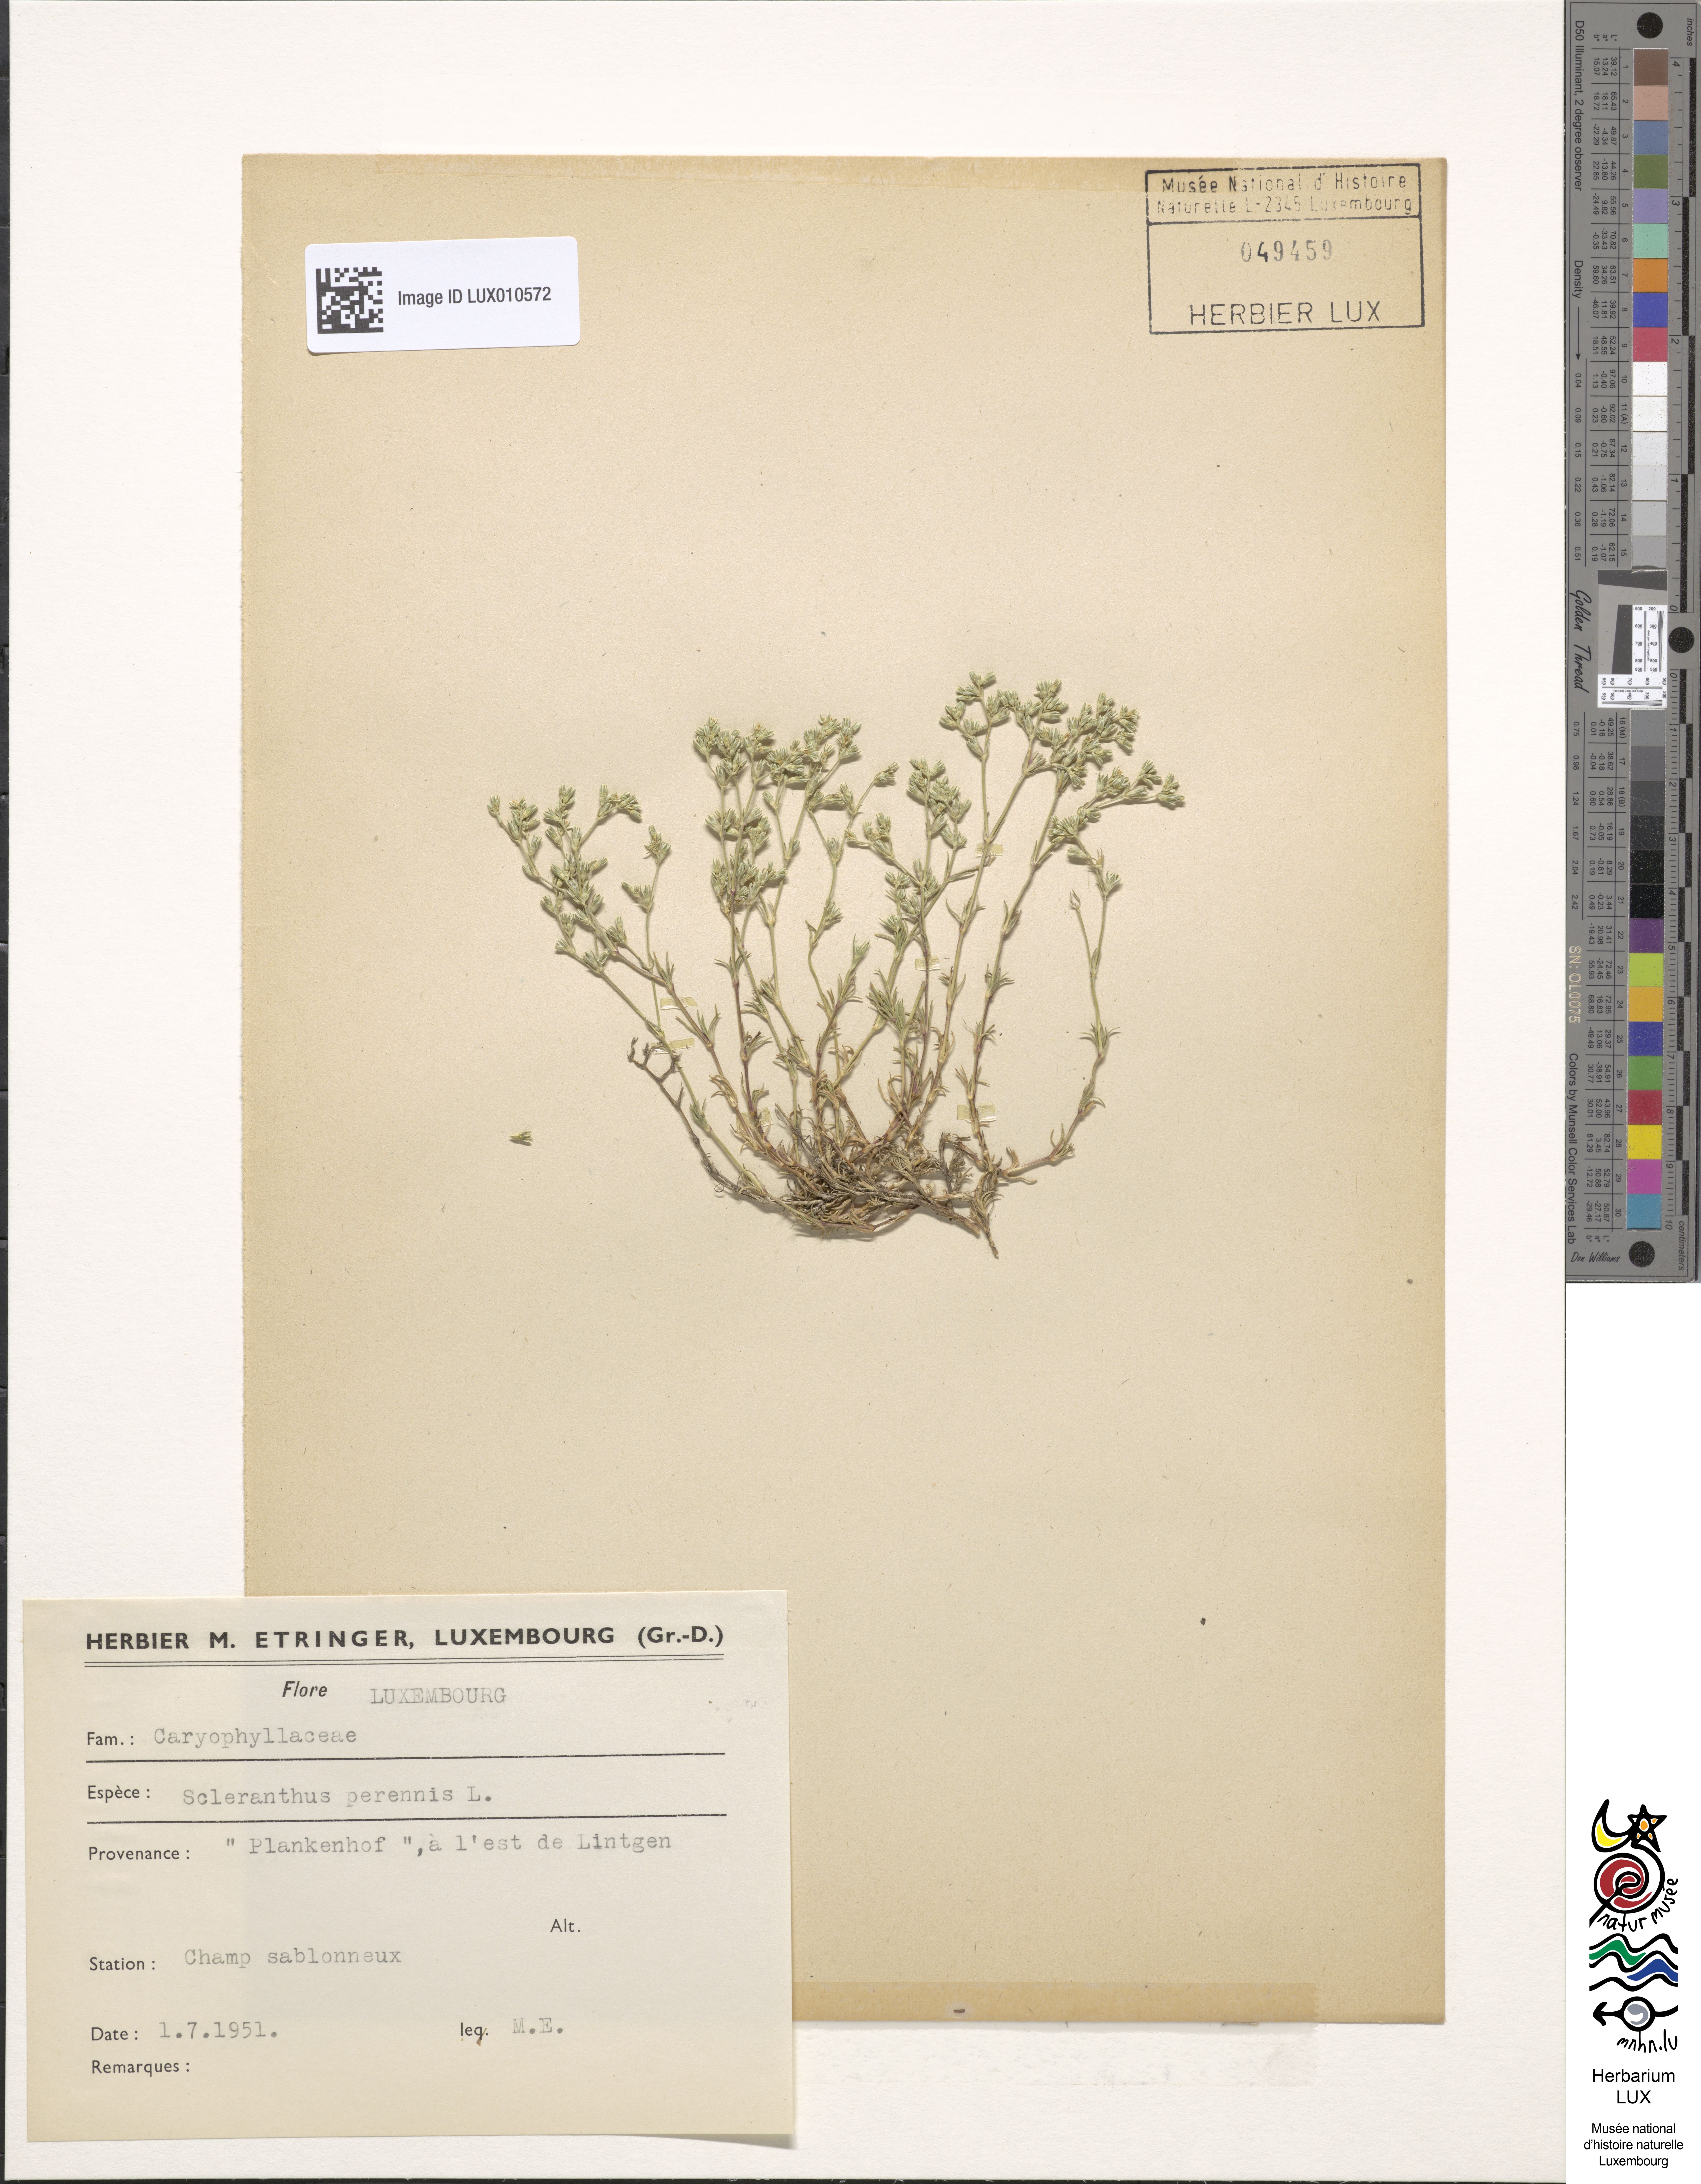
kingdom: Plantae
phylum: Tracheophyta
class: Magnoliopsida
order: Caryophyllales
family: Caryophyllaceae
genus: Scleranthus
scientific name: Scleranthus perennis
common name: Perennial knawel
